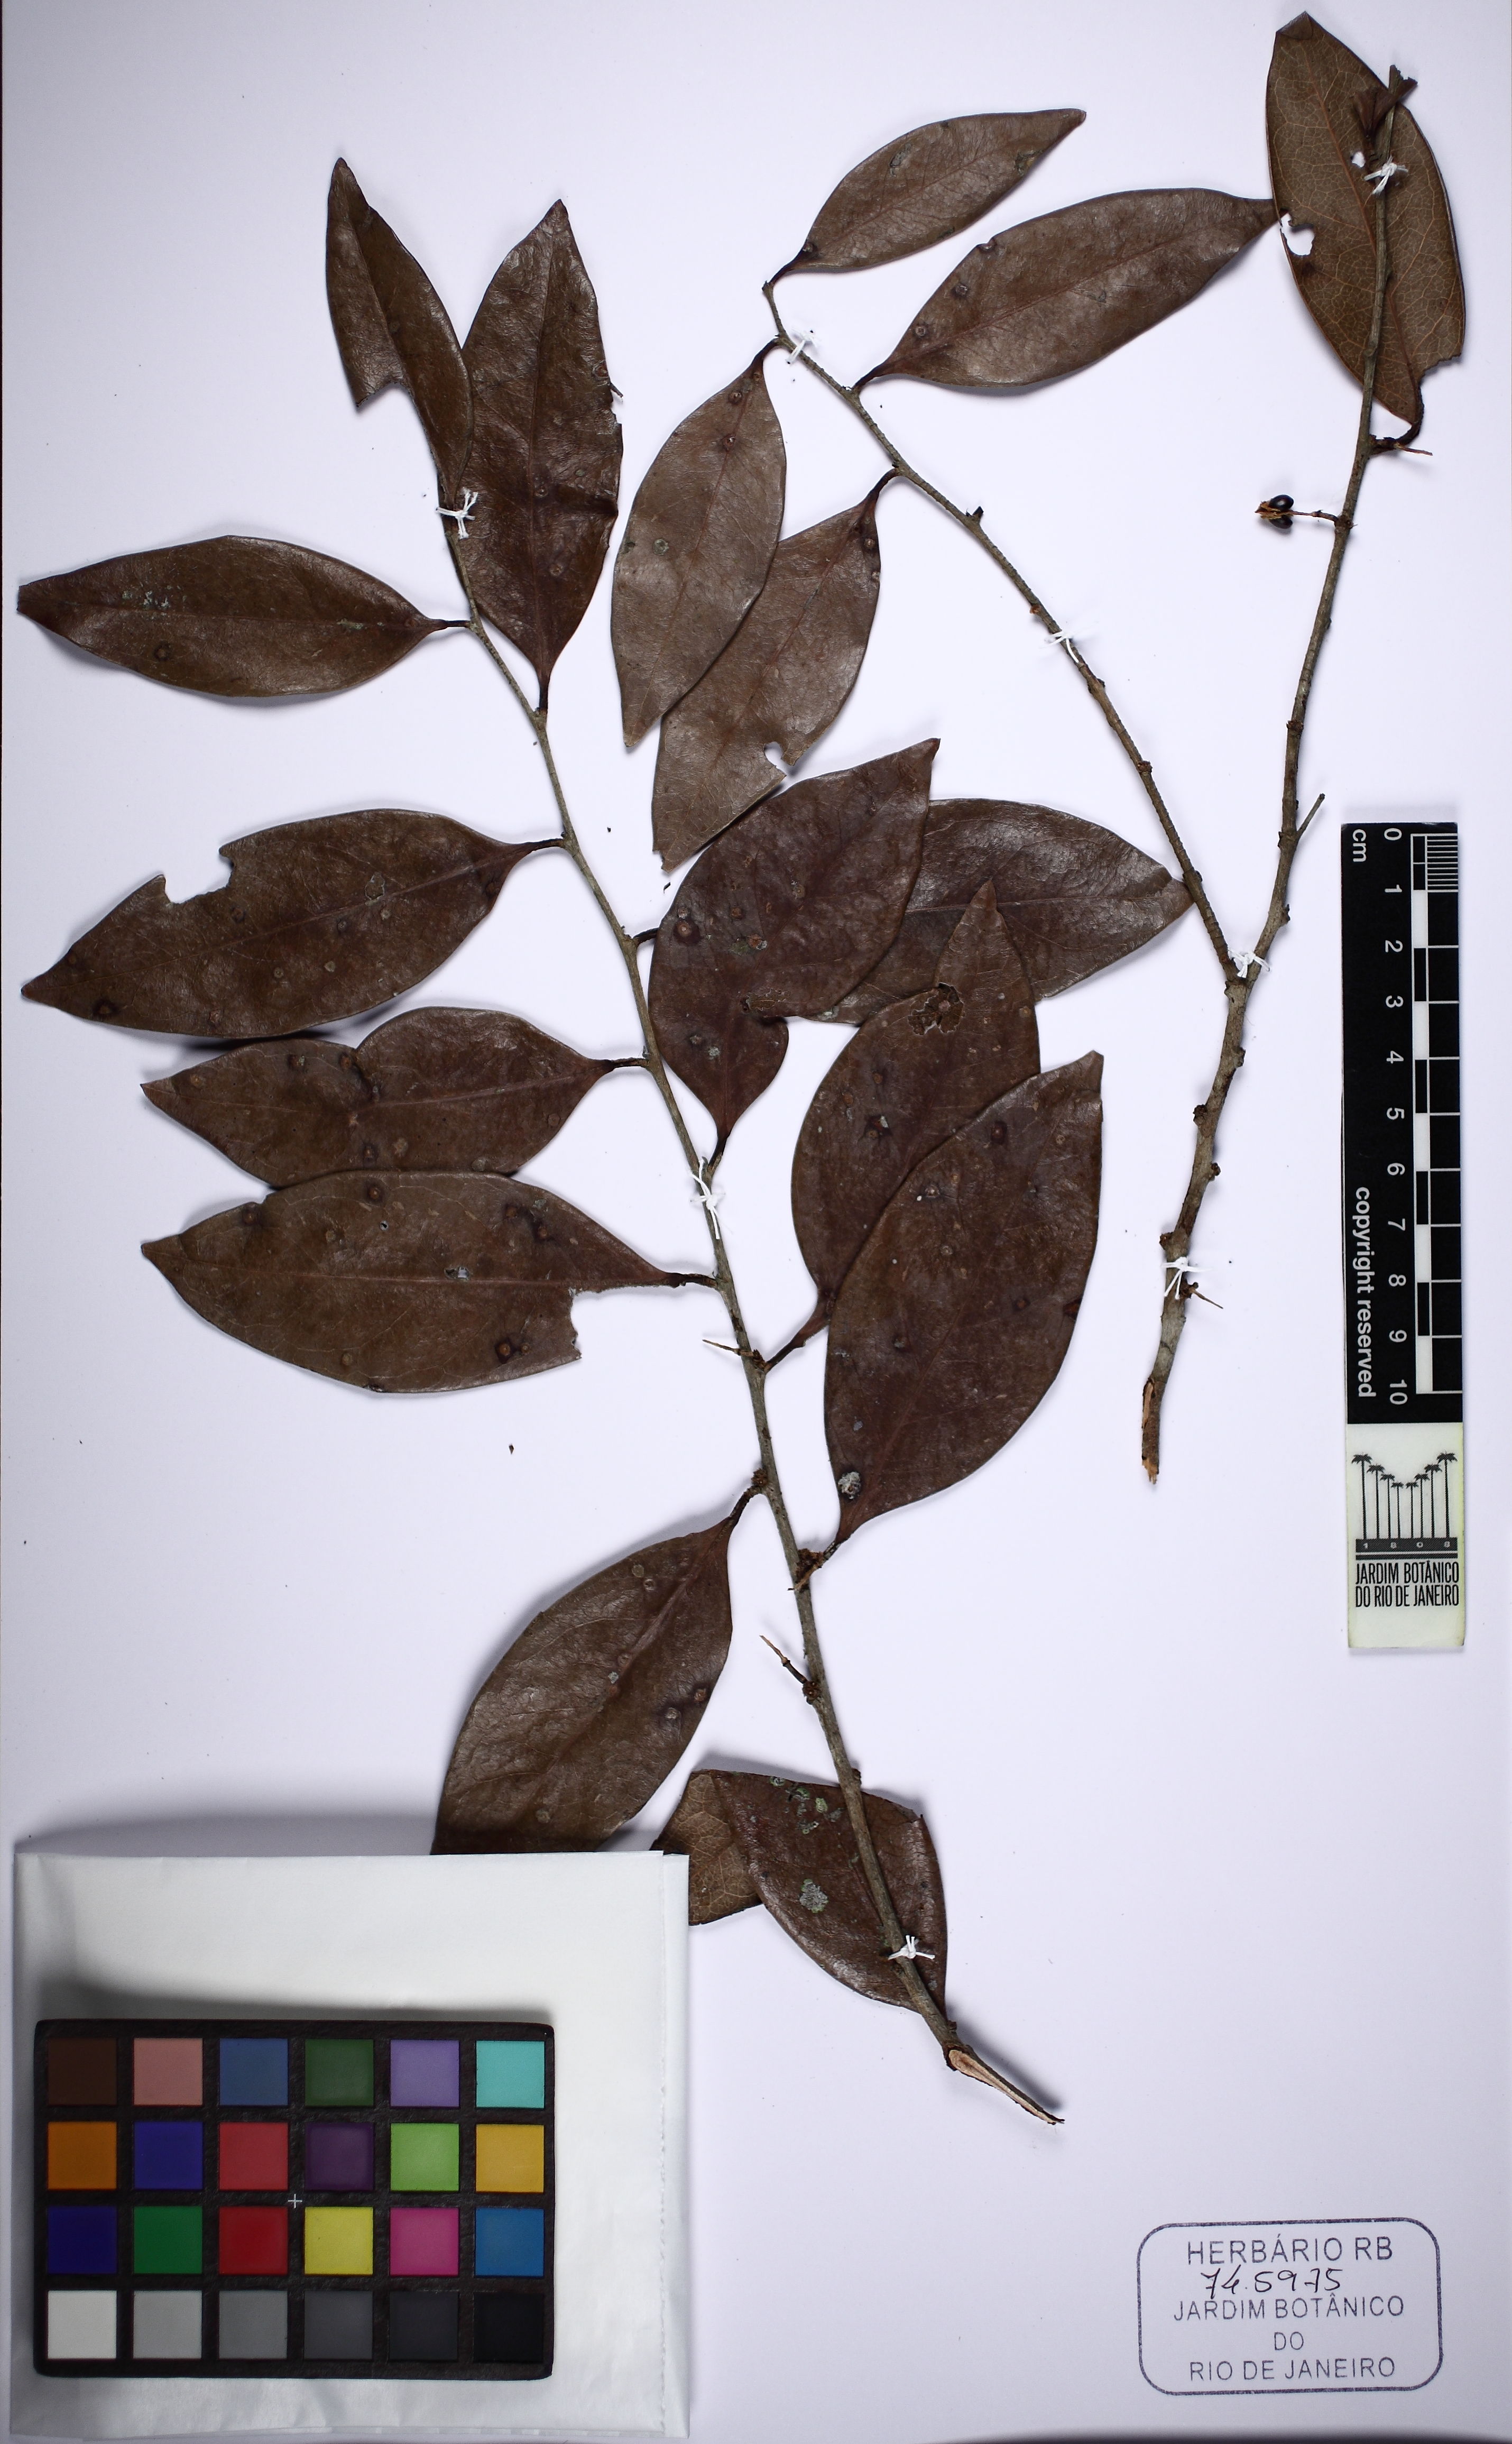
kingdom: Plantae
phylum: Tracheophyta
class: Magnoliopsida
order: Malpighiales
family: Peraceae
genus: Chaetocarpus
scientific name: Chaetocarpus myrsinites
